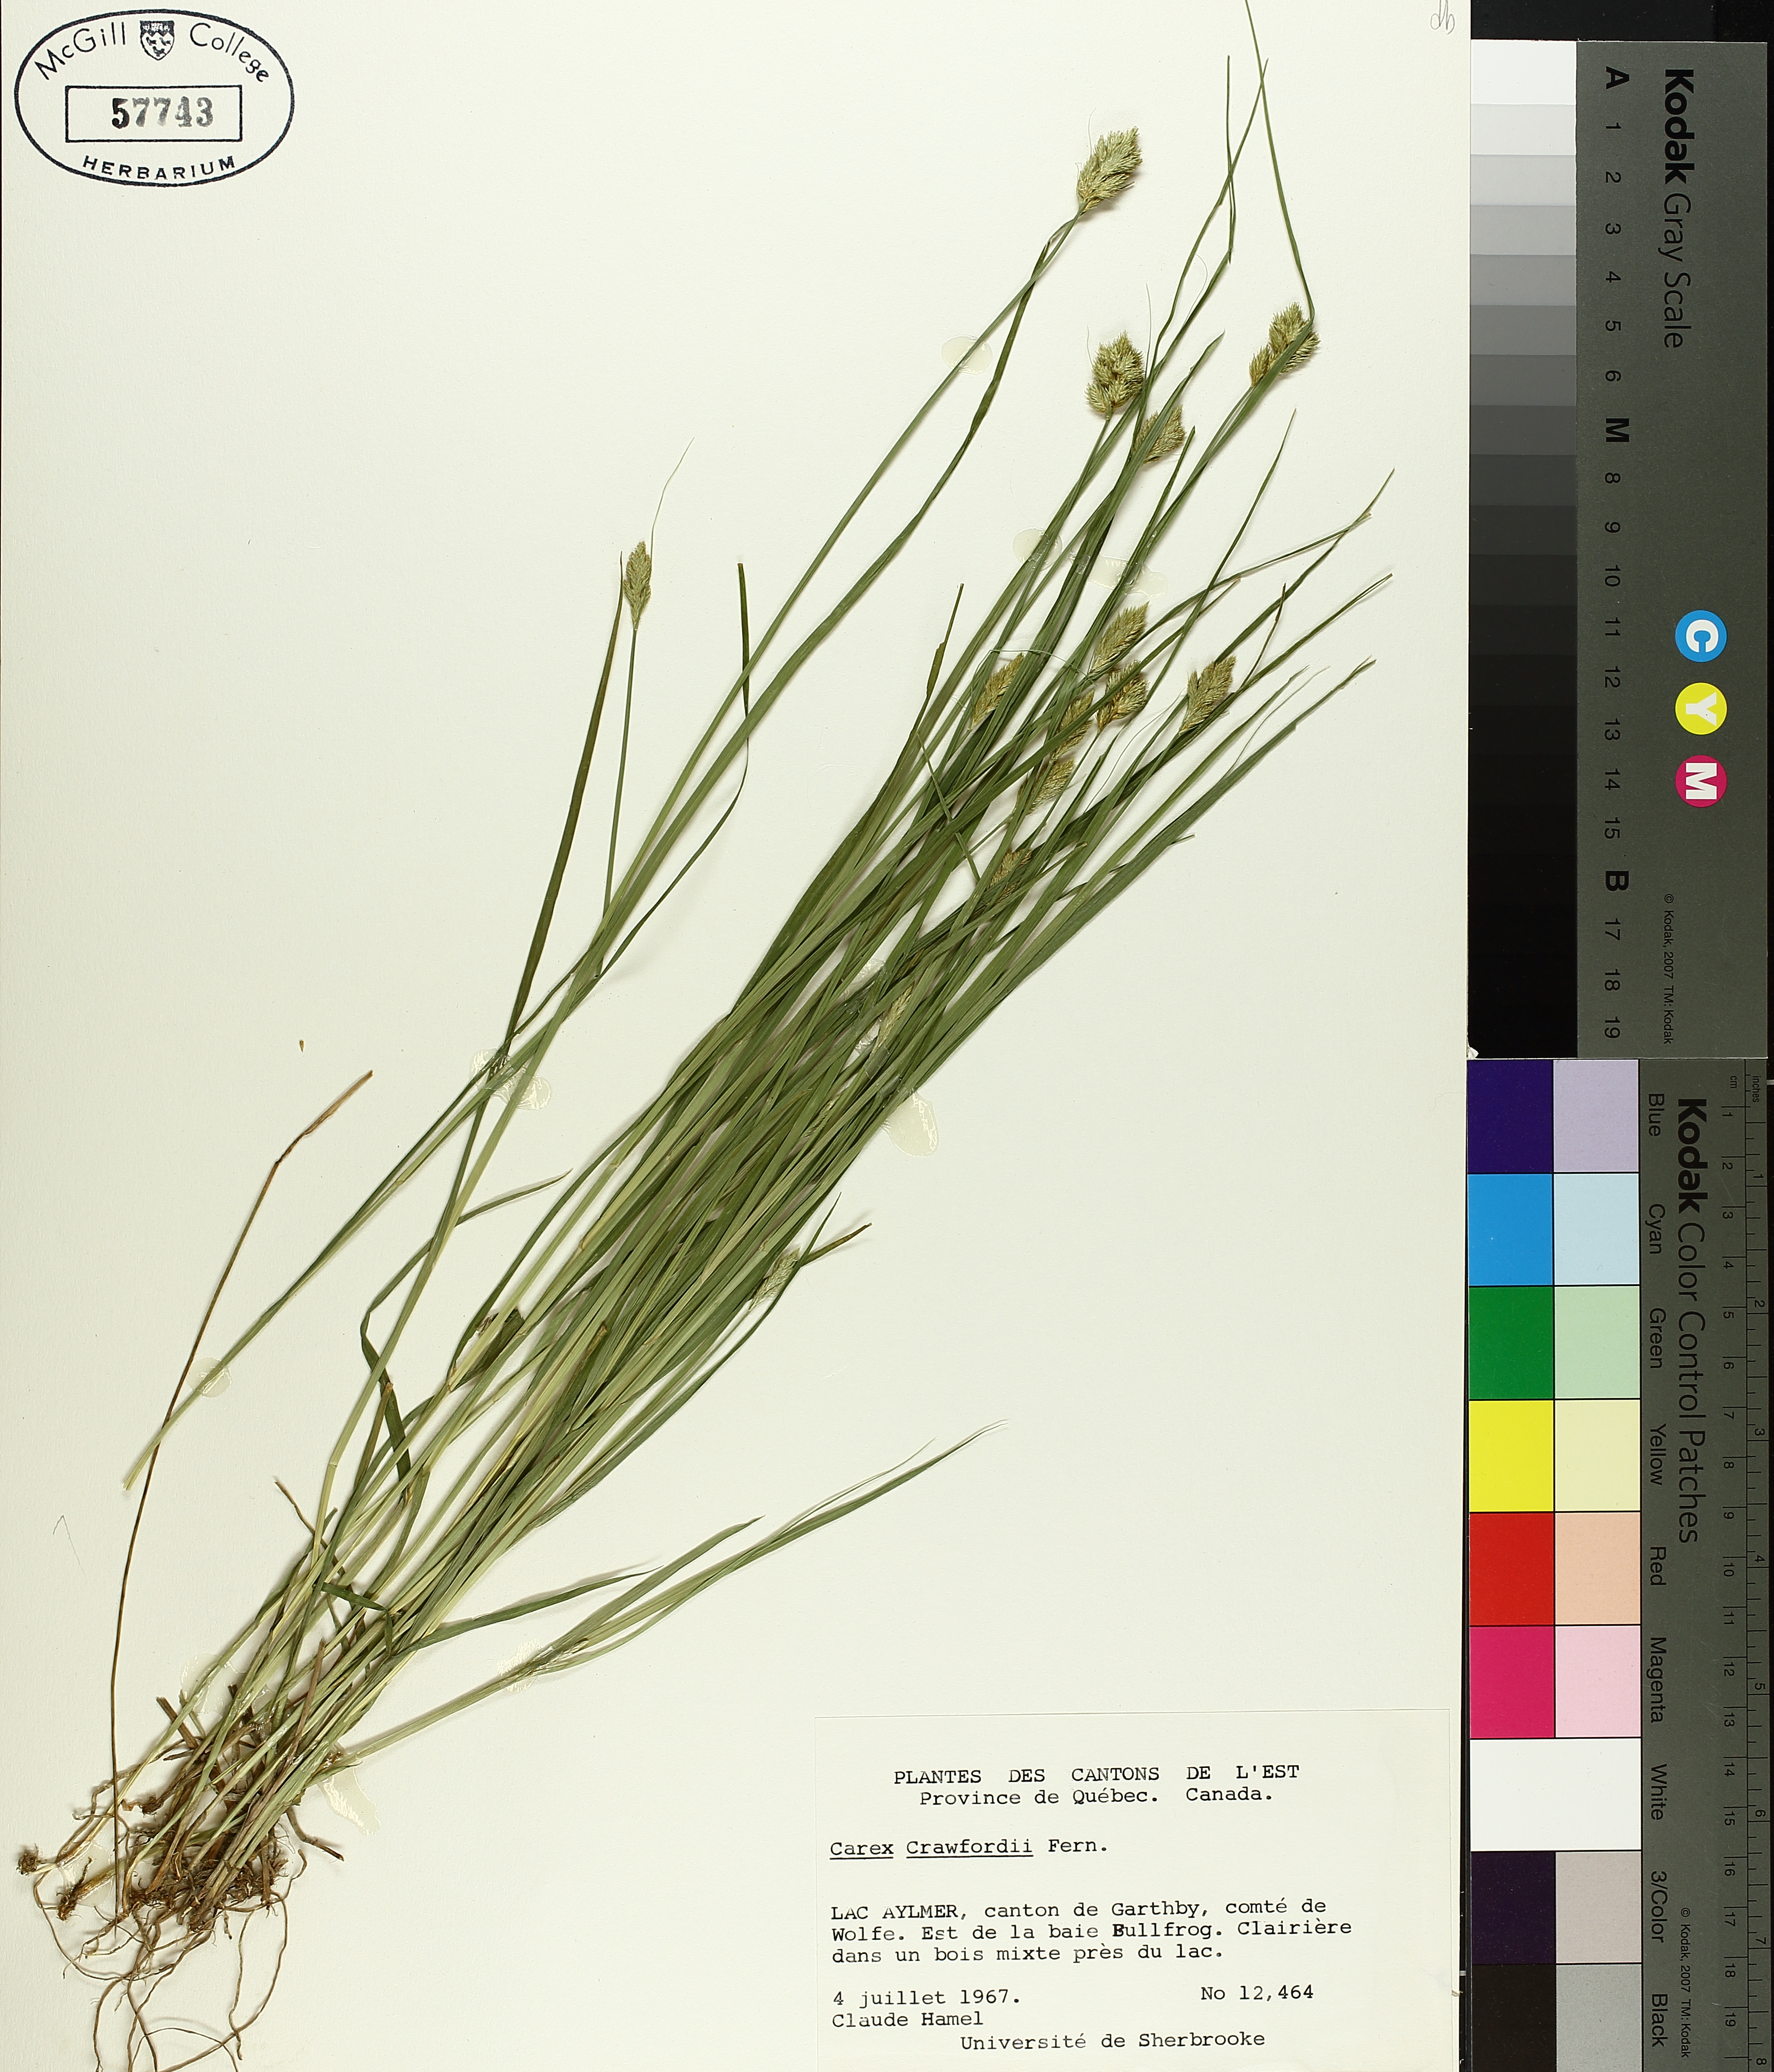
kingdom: Plantae
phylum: Tracheophyta
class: Liliopsida
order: Poales
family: Cyperaceae
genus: Carex
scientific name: Carex crawfordii
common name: Crawford's sedge
